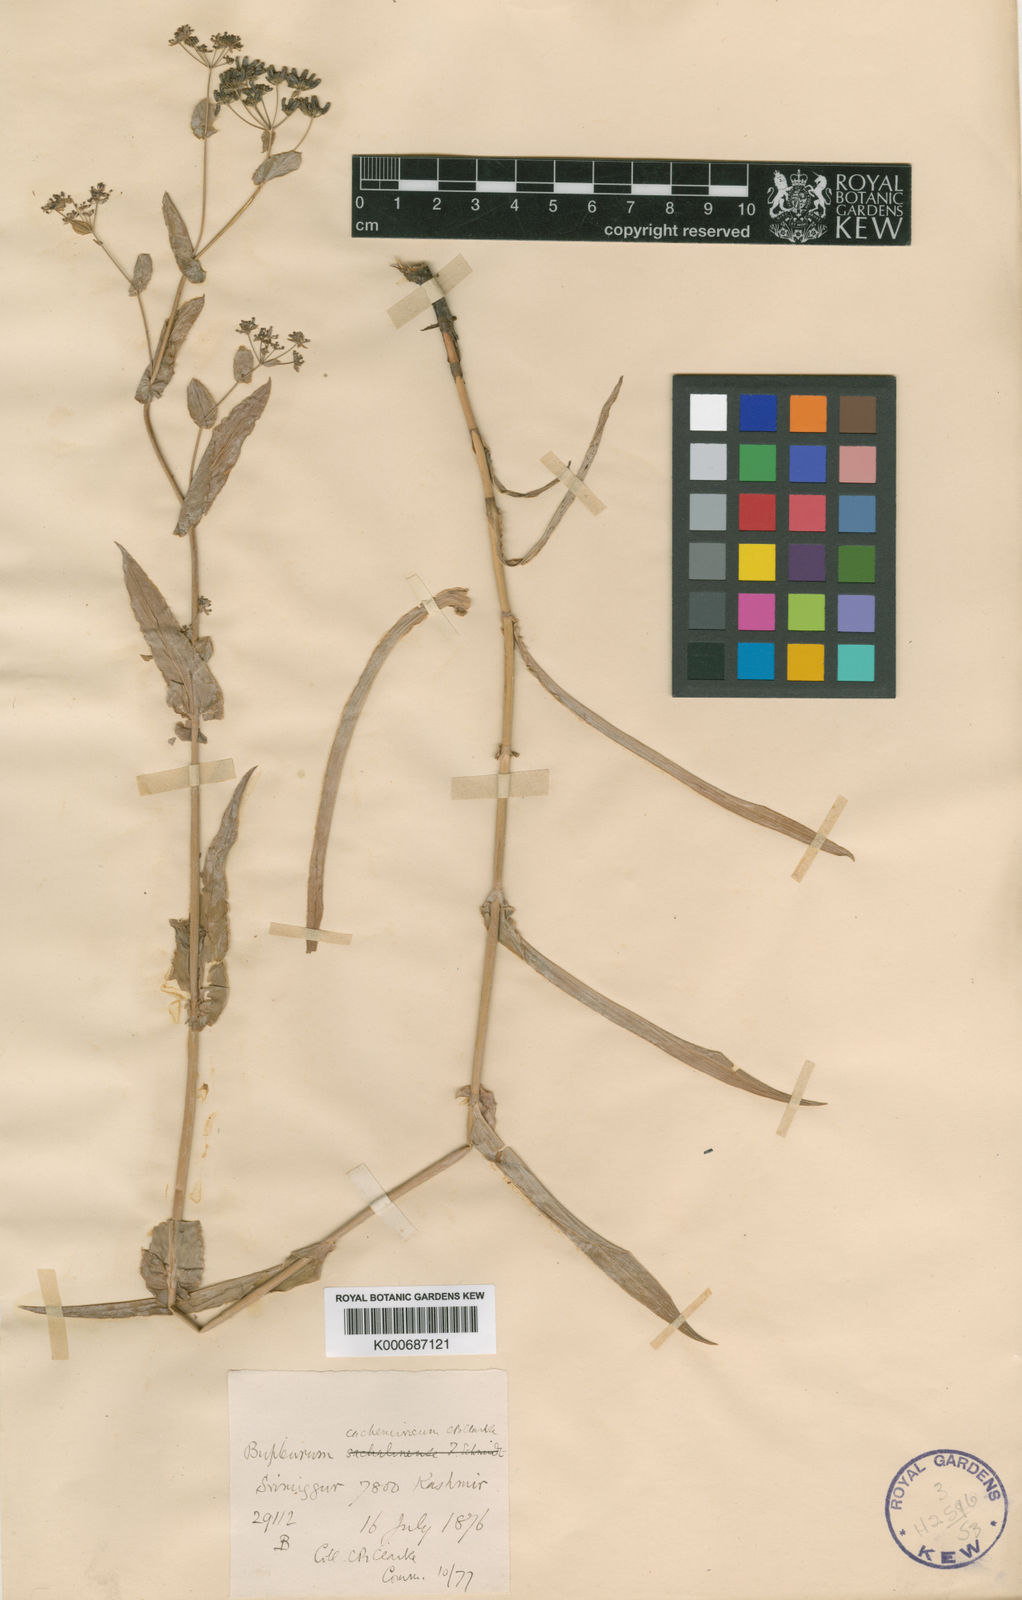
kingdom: Plantae
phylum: Tracheophyta
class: Magnoliopsida
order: Apiales
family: Apiaceae
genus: Bupleurum
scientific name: Bupleurum jucundum
